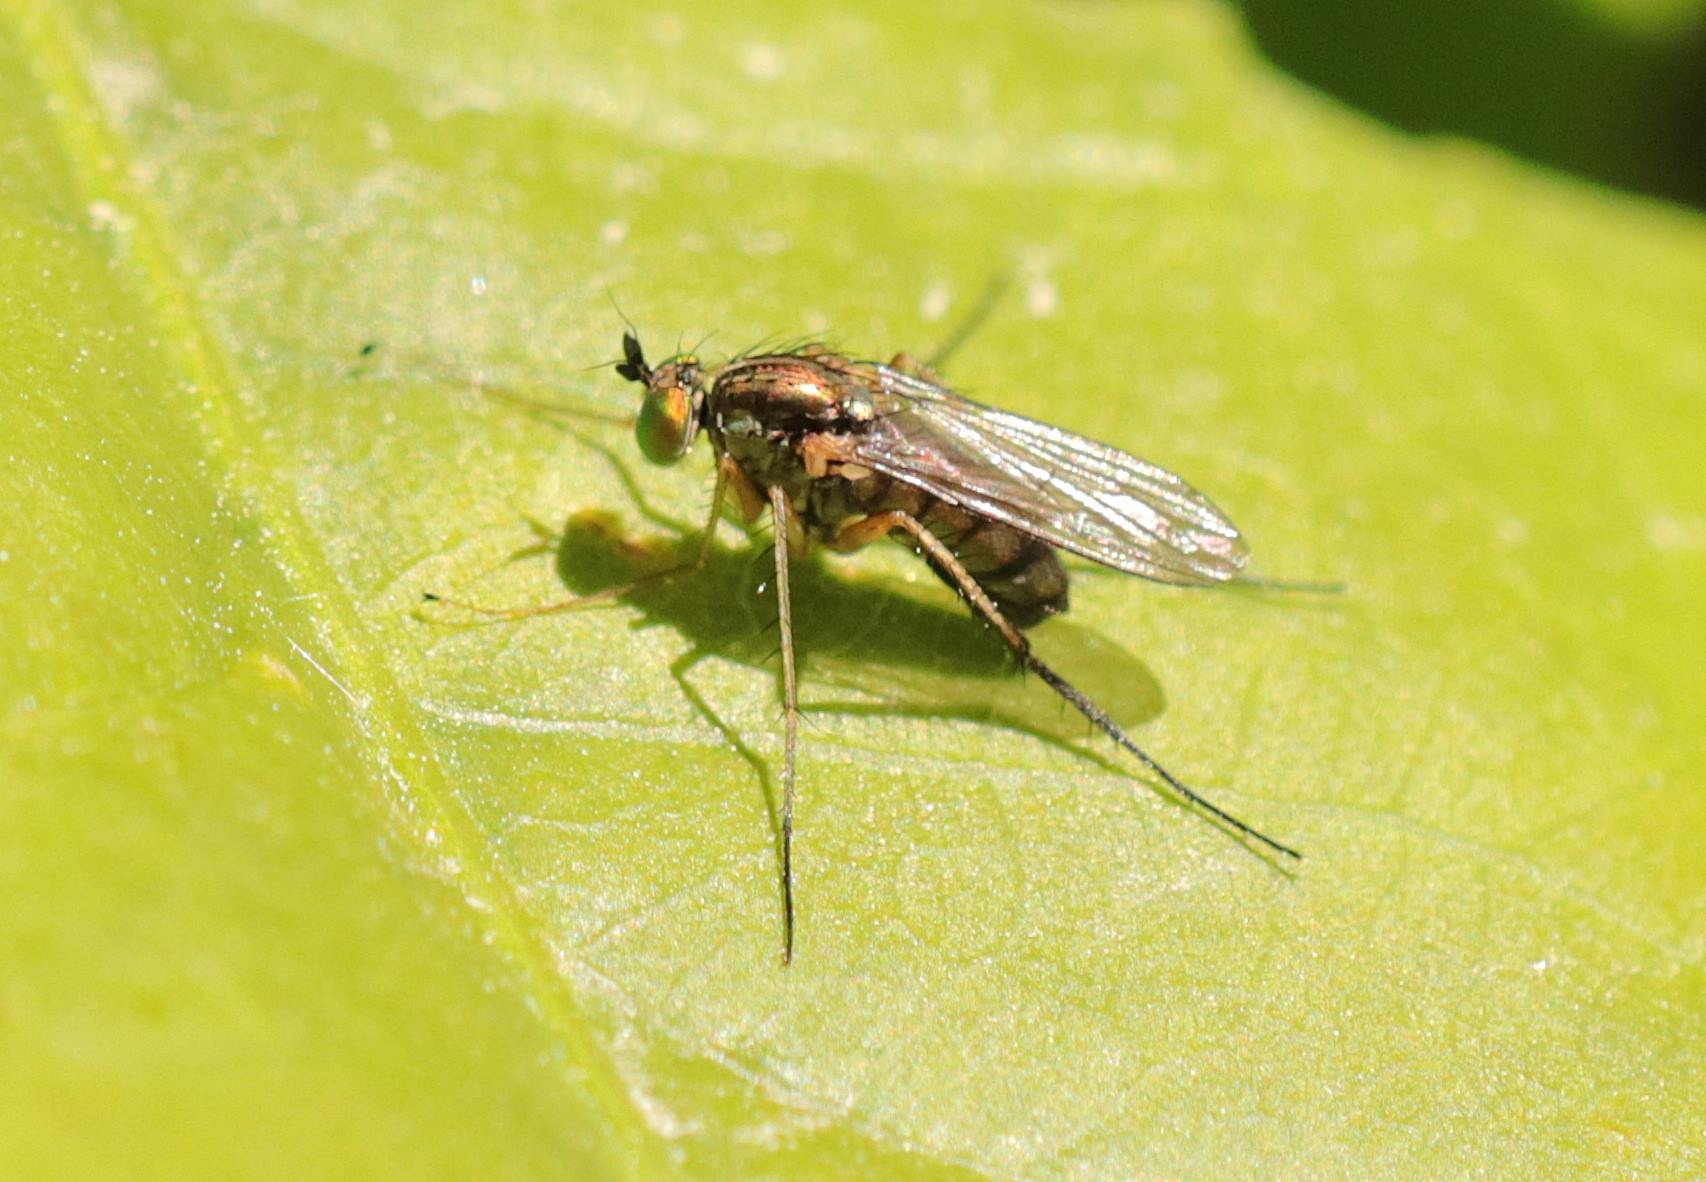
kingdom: Animalia
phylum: Arthropoda
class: Insecta
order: Diptera
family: Dolichopodidae
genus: Dolichopus
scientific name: Dolichopus nigricornis
